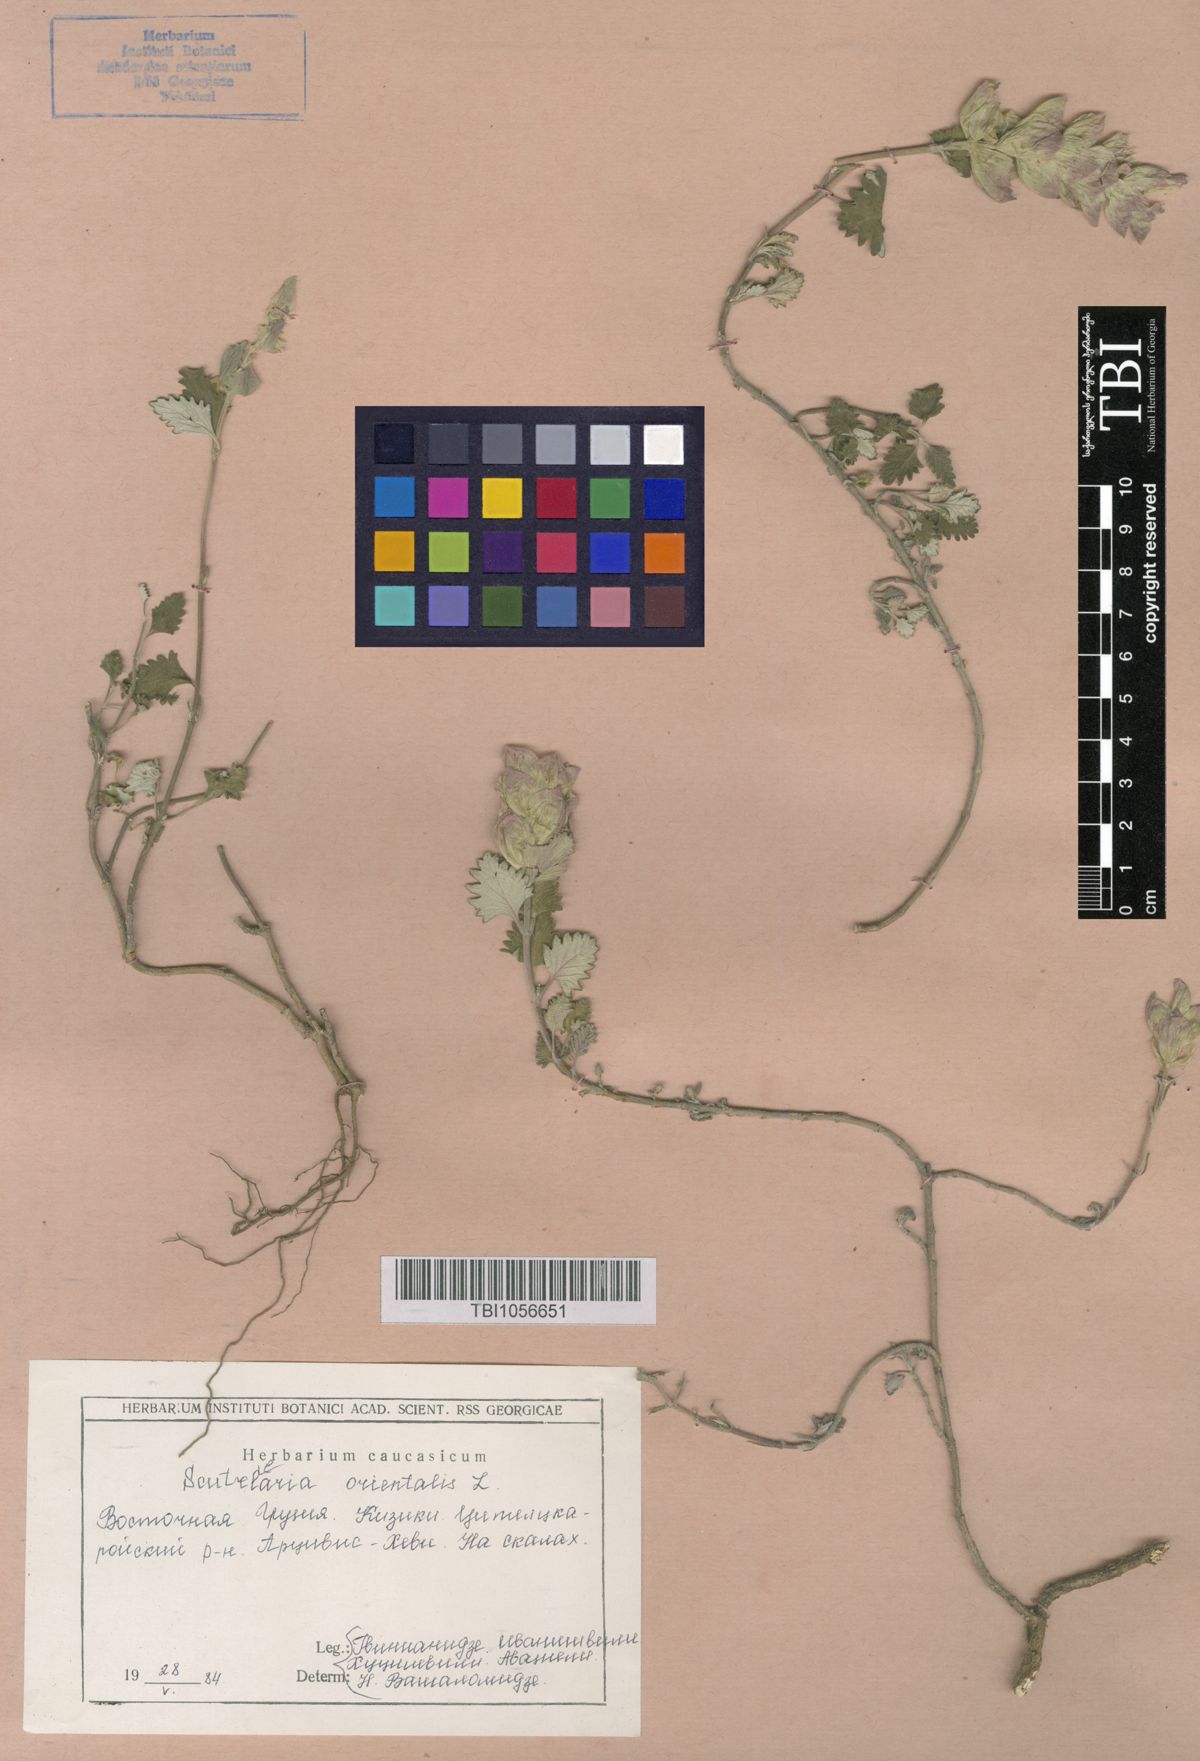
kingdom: Plantae
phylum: Tracheophyta
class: Magnoliopsida
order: Lamiales
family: Lamiaceae
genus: Scutellaria
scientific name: Scutellaria orientalis
